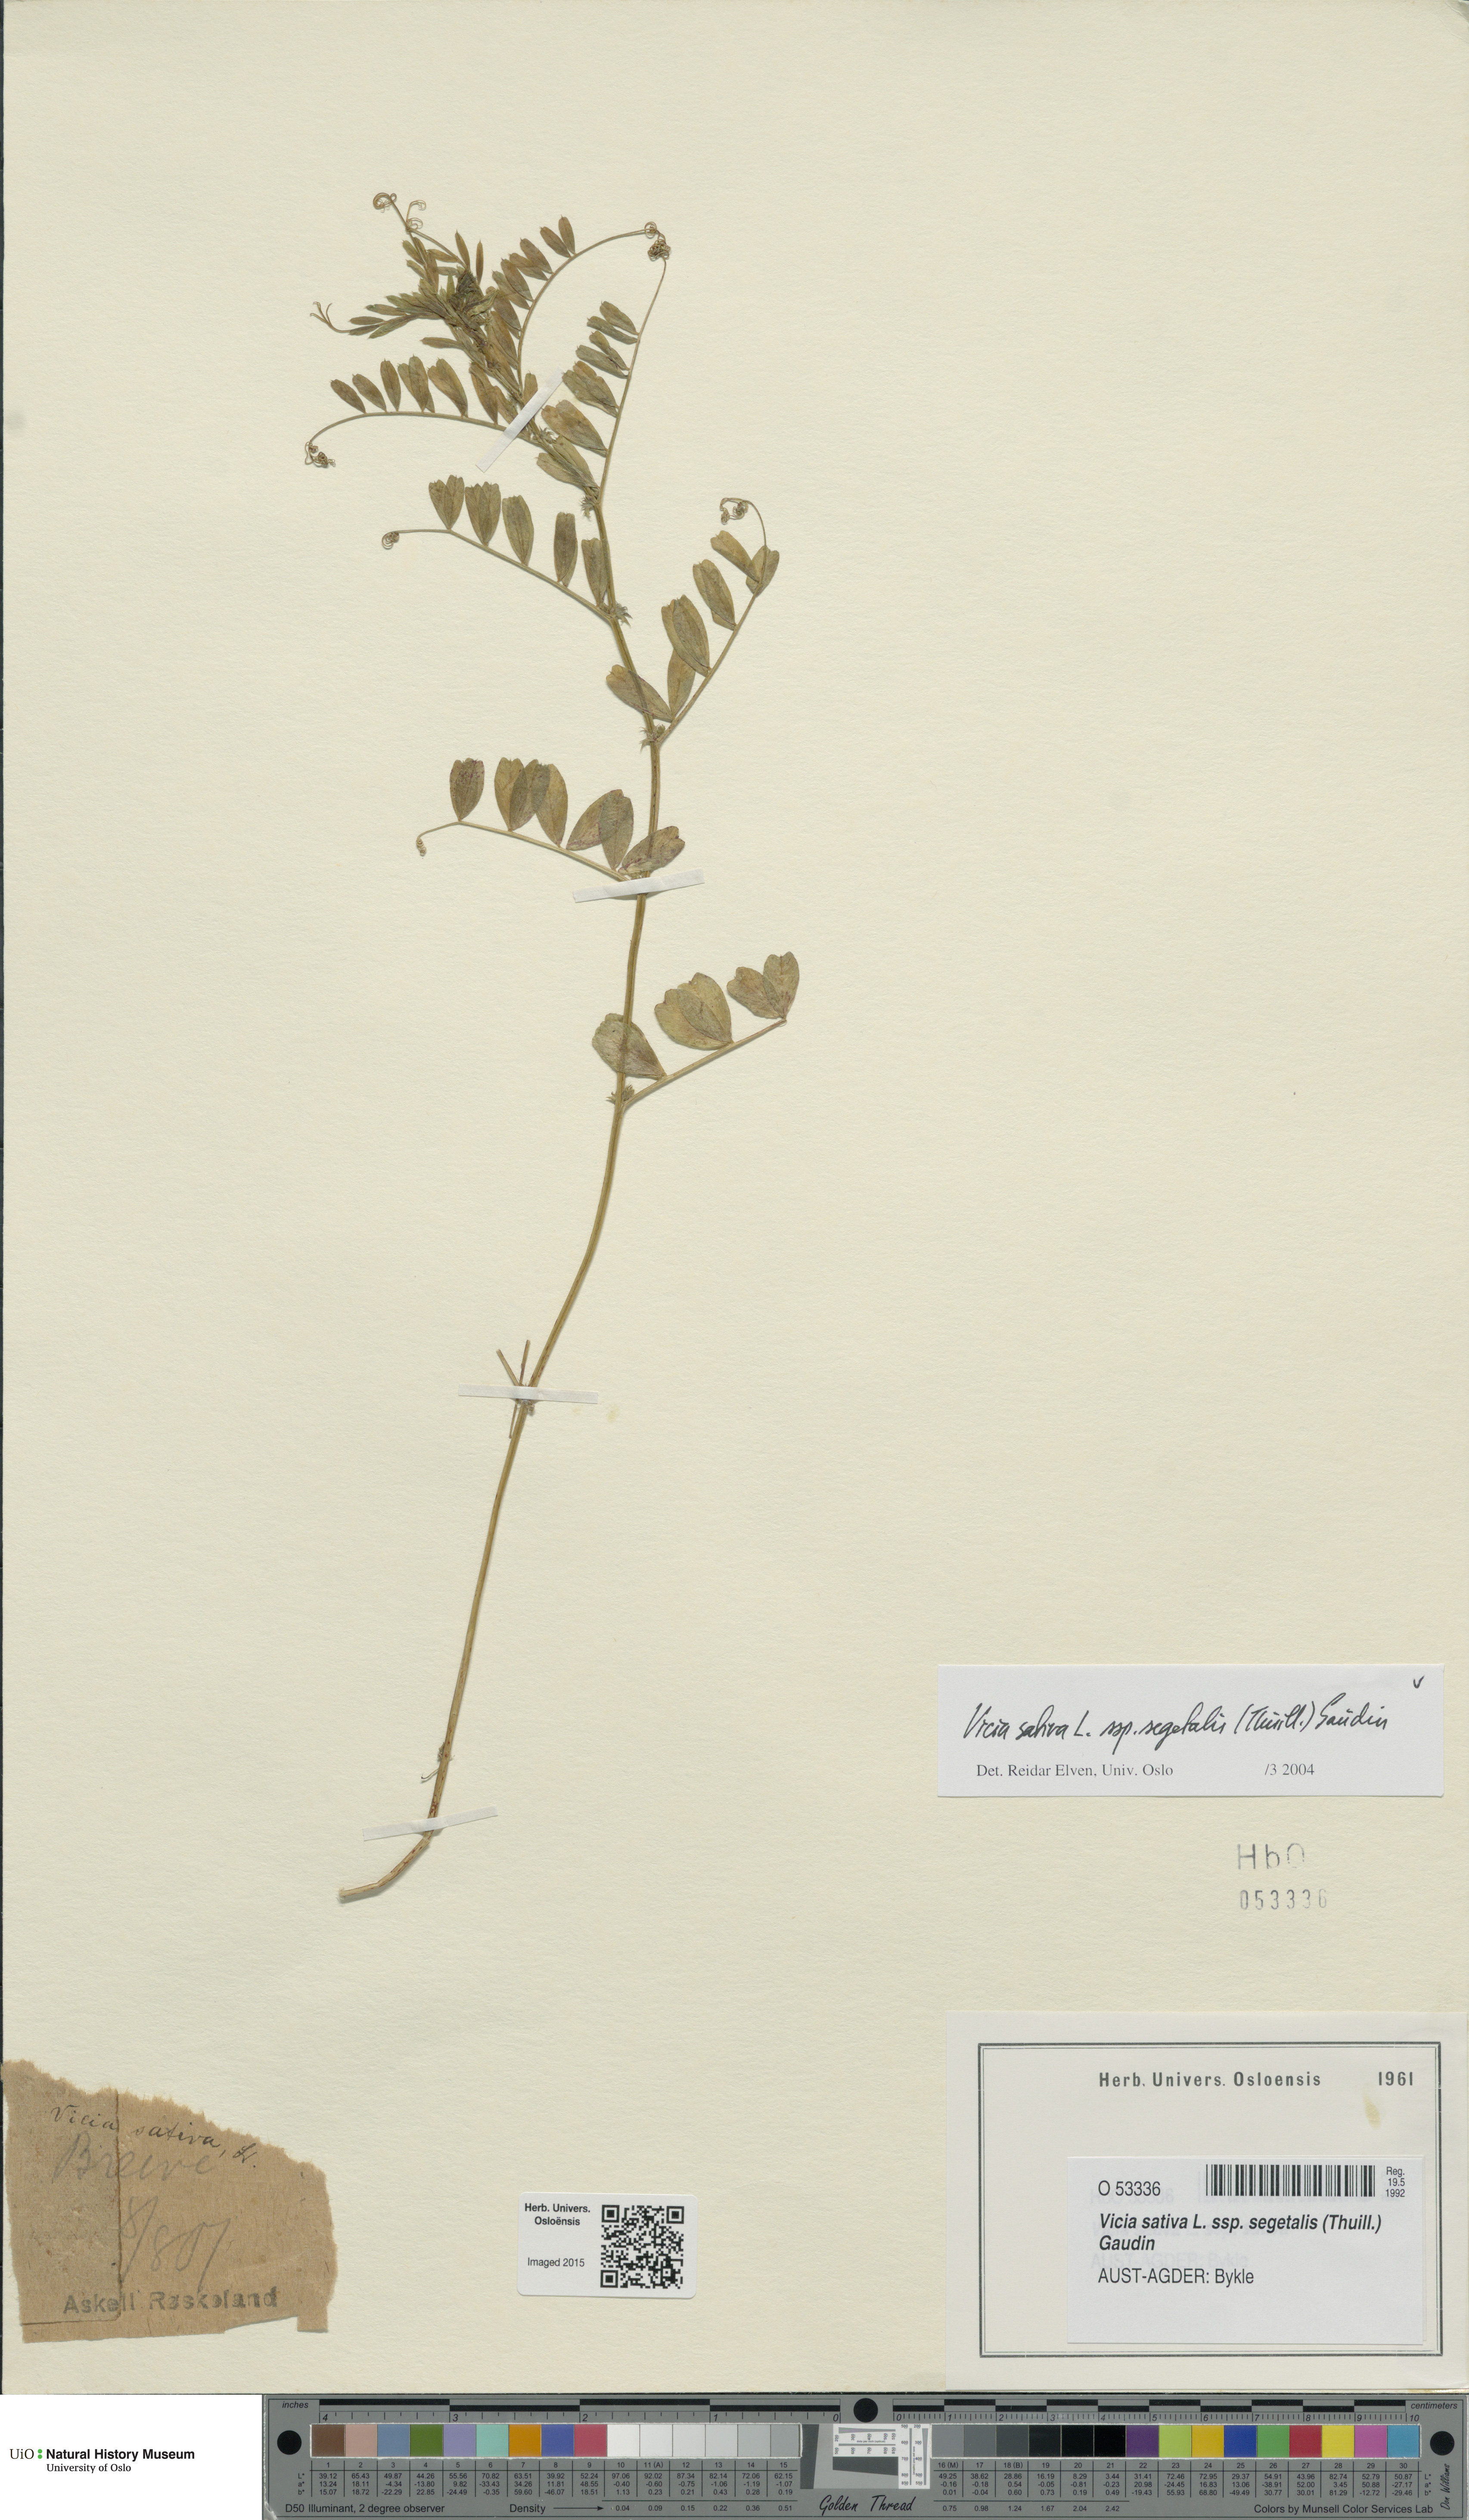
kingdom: Plantae
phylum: Tracheophyta
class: Magnoliopsida
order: Fabales
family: Fabaceae
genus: Vicia
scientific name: Vicia sativa
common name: Garden vetch
